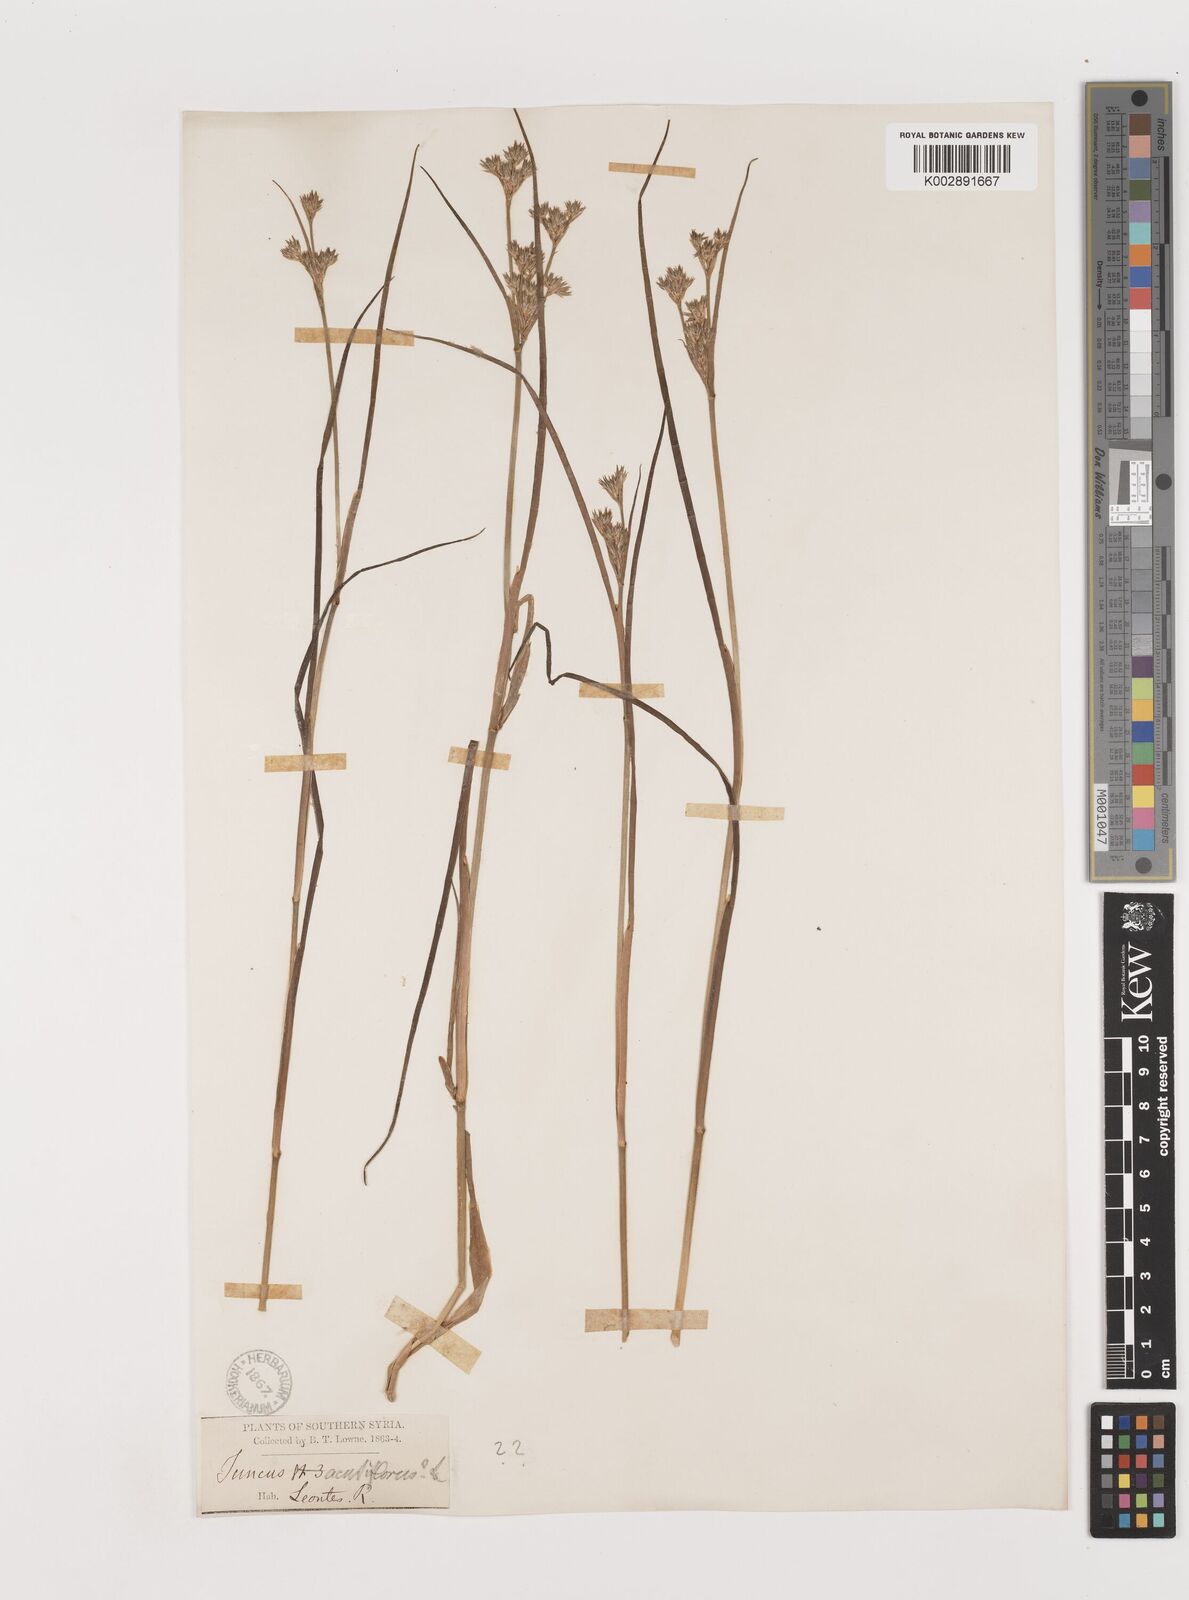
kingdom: Plantae
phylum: Tracheophyta
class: Liliopsida
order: Poales
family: Juncaceae
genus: Juncus
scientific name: Juncus acutiflorus
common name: Sharp-flowered rush
